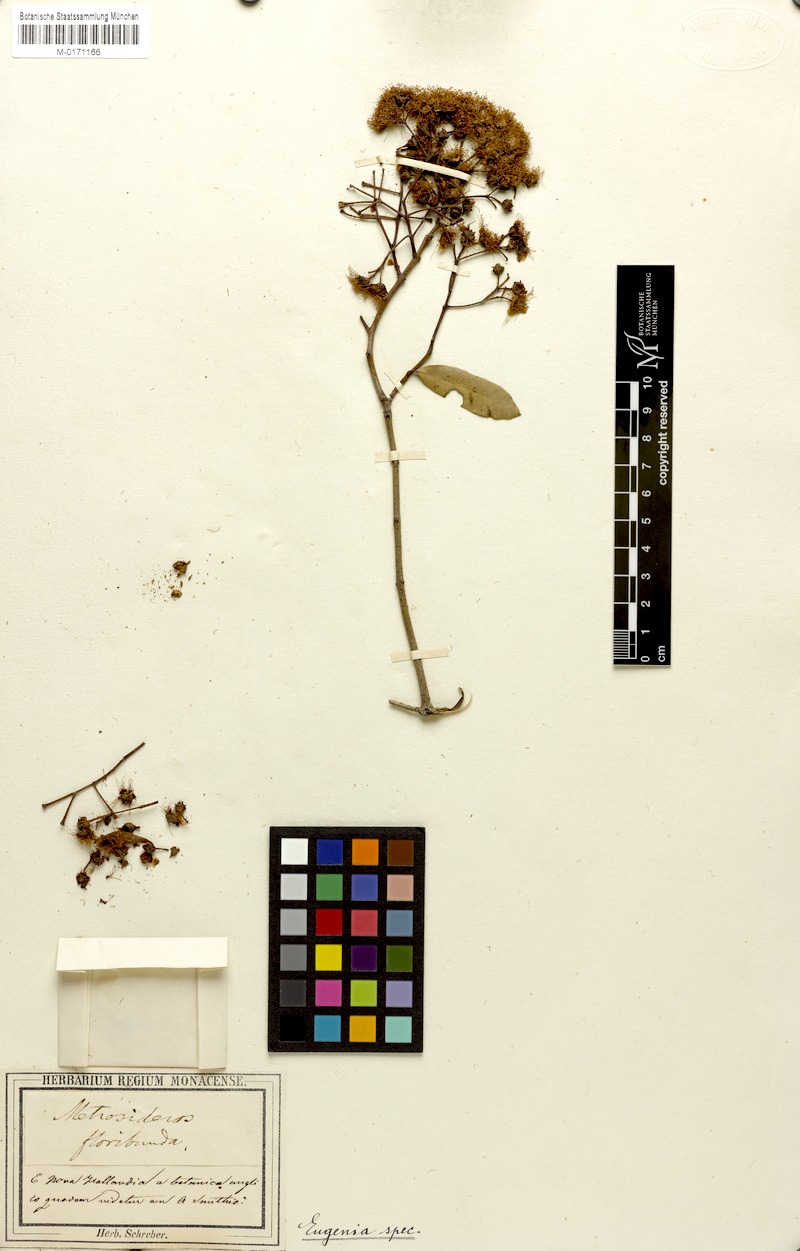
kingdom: Plantae
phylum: Tracheophyta
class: Magnoliopsida
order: Myrtales
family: Myrtaceae
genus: Angophora
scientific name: Angophora floribunda
